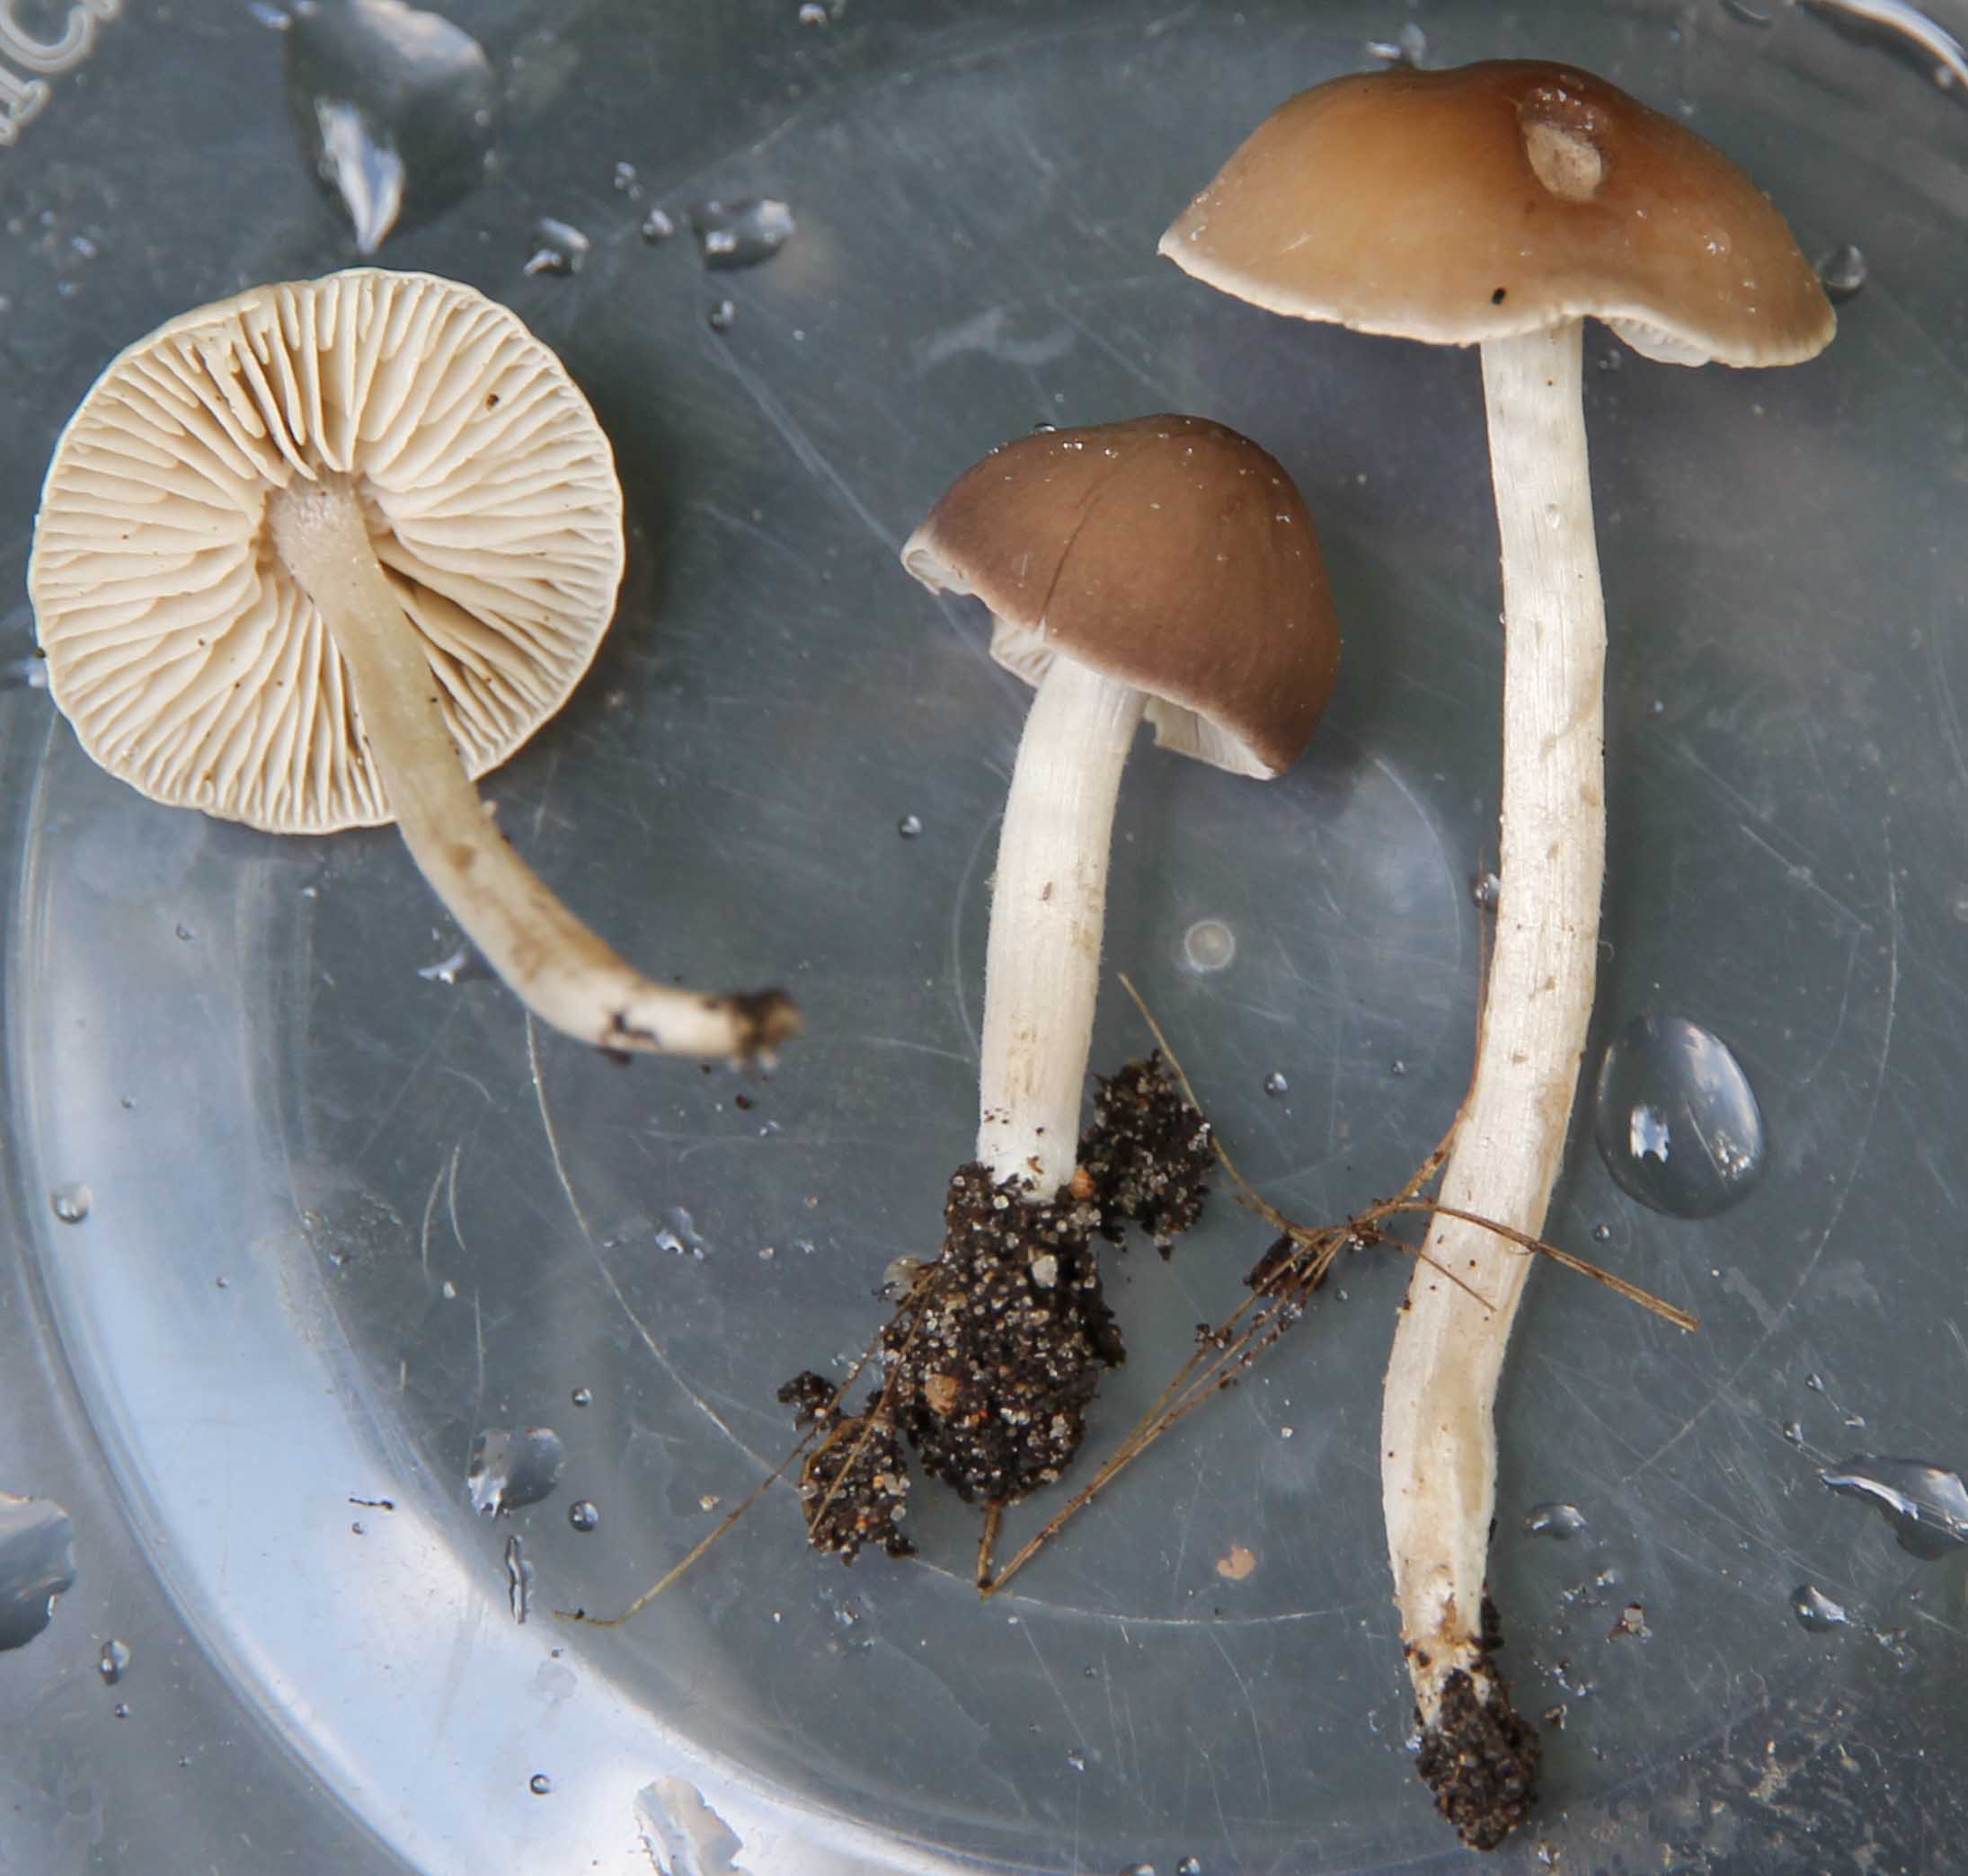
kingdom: Fungi
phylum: Basidiomycota
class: Agaricomycetes
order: Agaricales
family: Tricholomataceae
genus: Dermoloma
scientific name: Dermoloma cuneifolium
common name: eng-nonnehat
